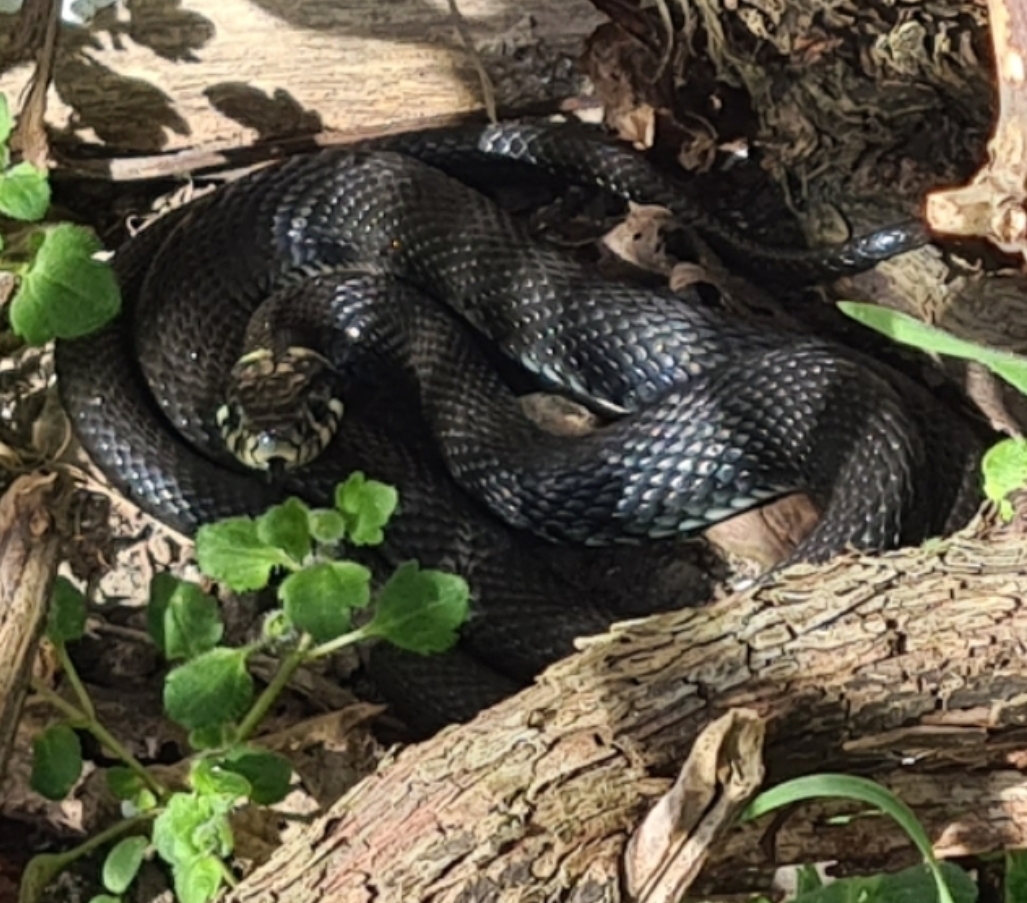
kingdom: Animalia
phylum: Chordata
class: Squamata
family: Colubridae
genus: Natrix
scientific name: Natrix natrix
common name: Snog
